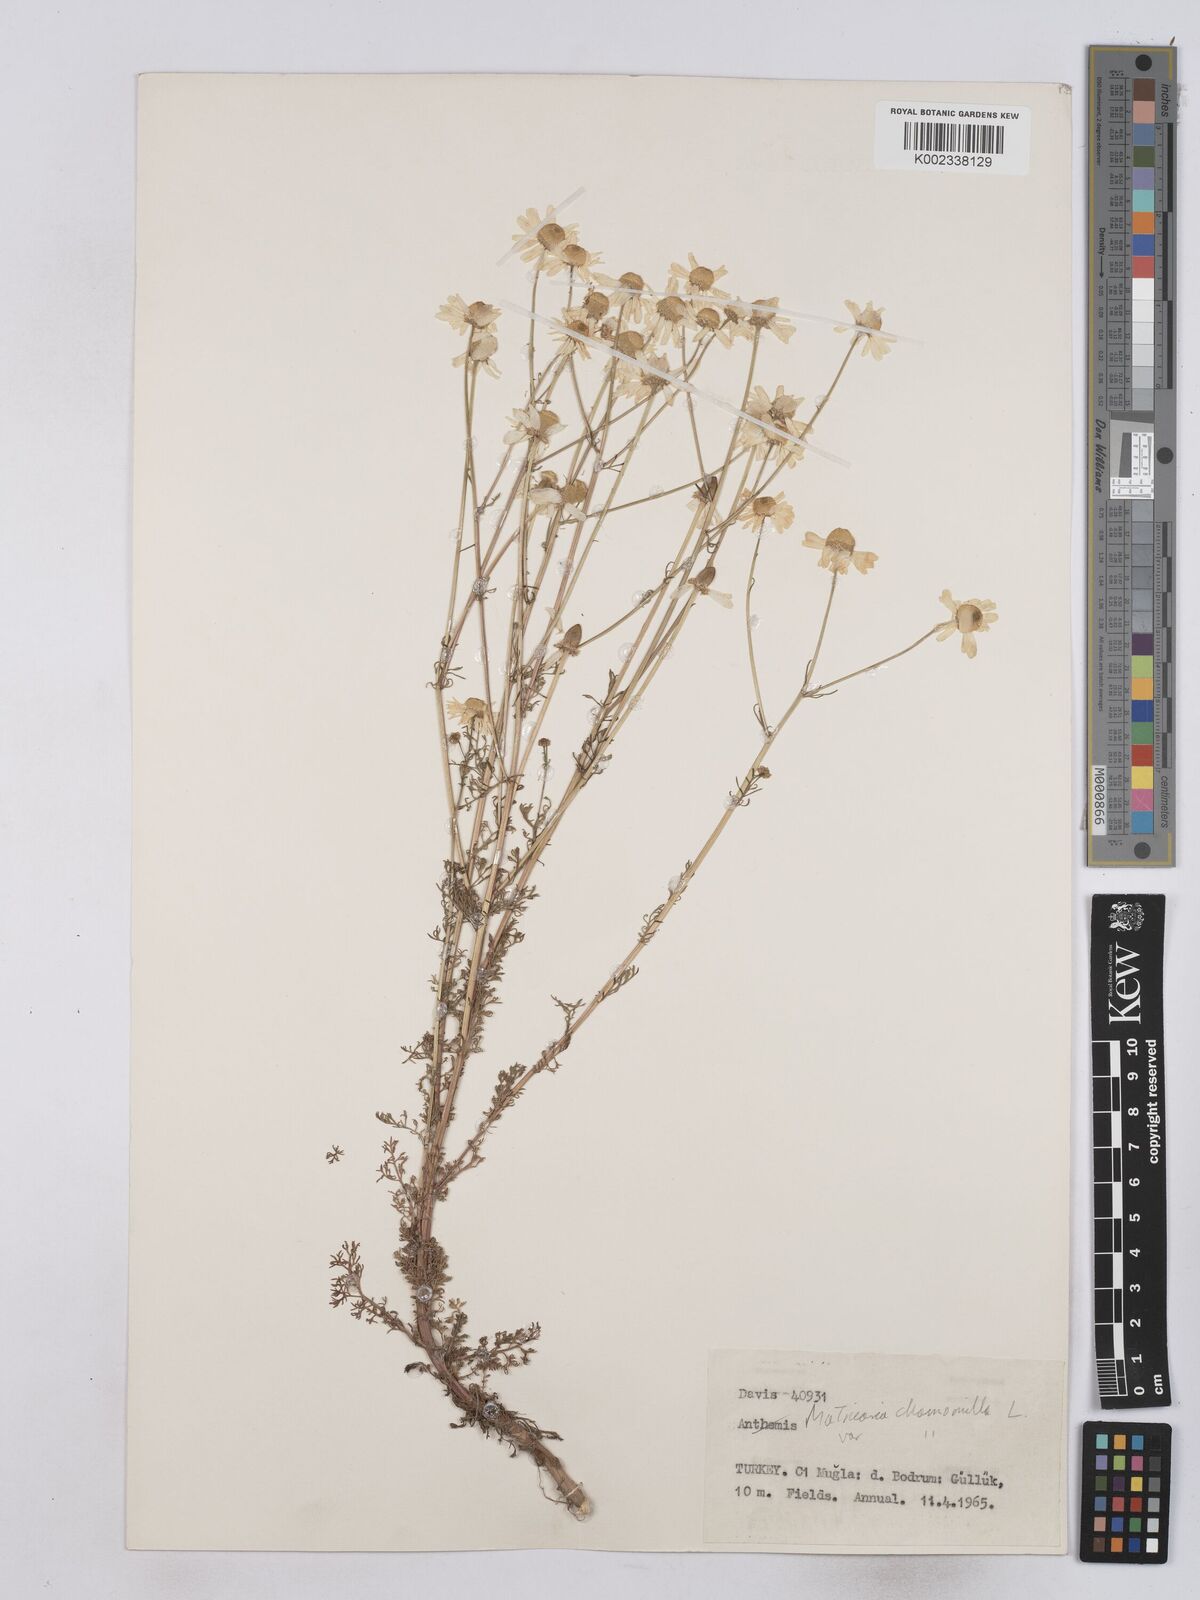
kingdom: Plantae
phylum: Tracheophyta
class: Magnoliopsida
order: Asterales
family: Asteraceae
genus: Matricaria
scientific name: Matricaria chamomilla
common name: Scented mayweed
